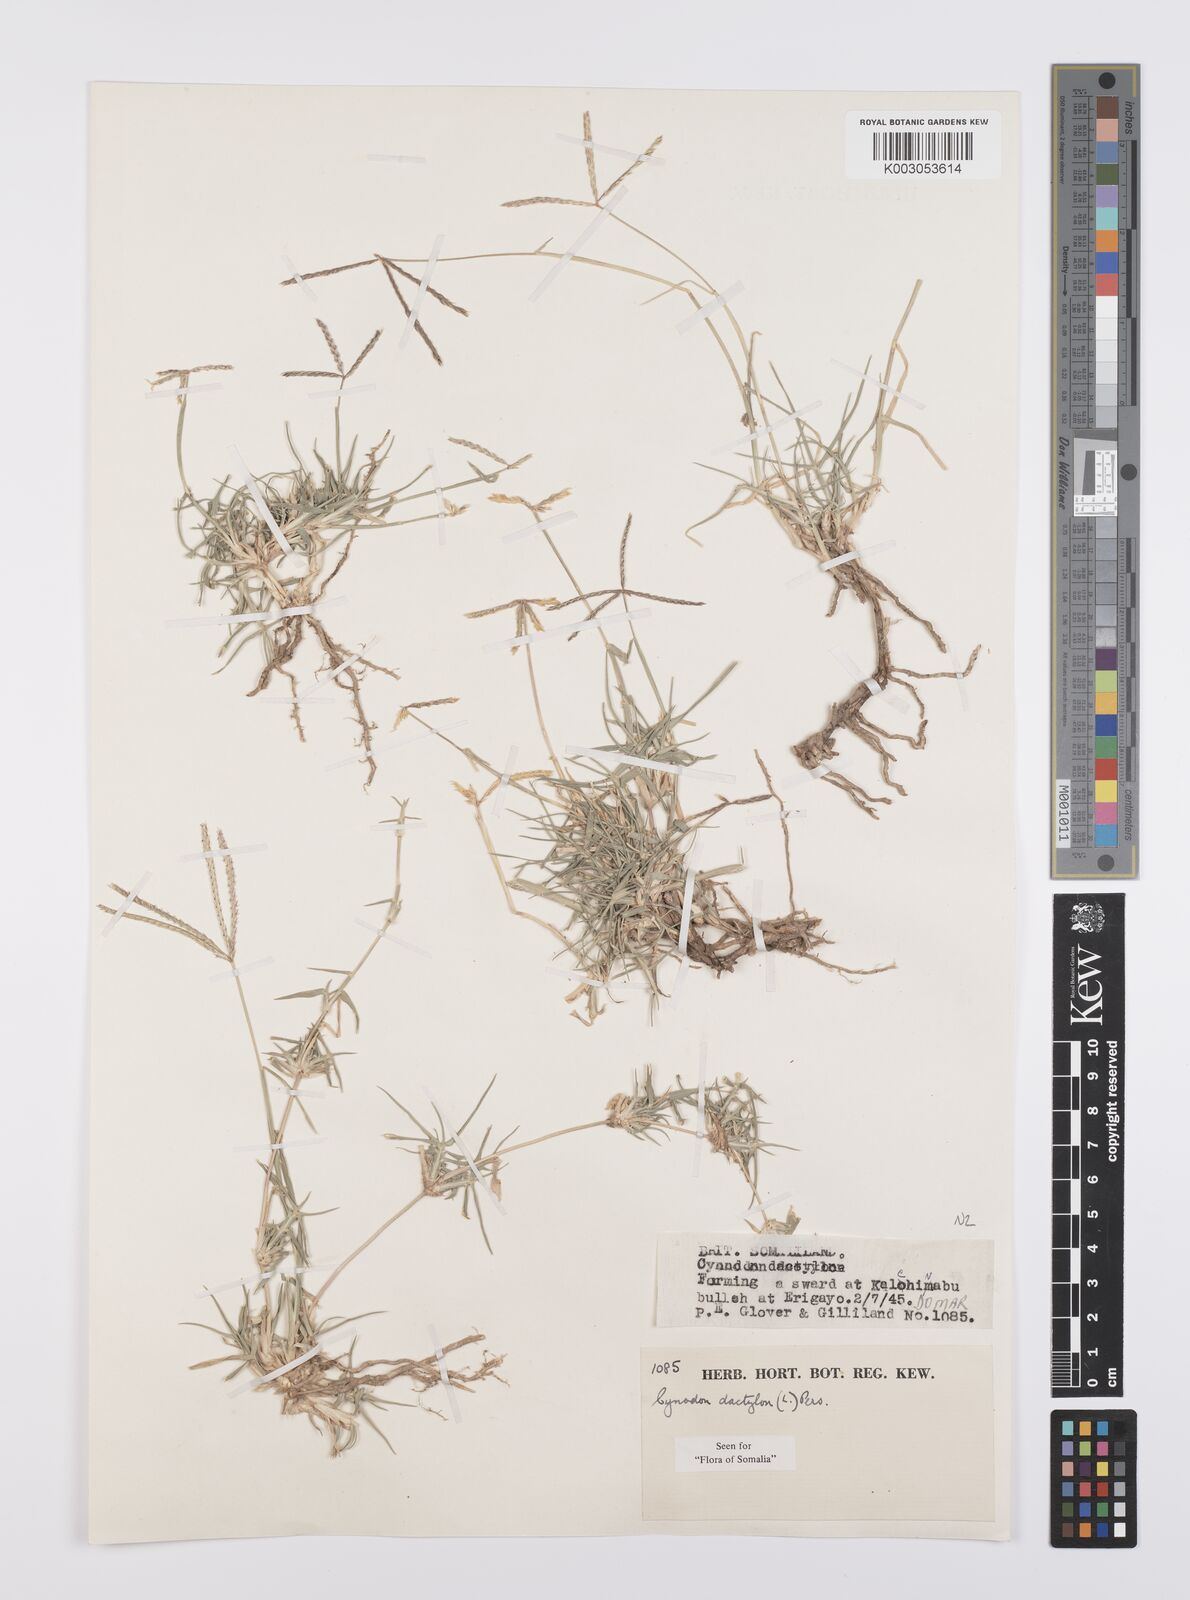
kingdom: Plantae
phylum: Tracheophyta
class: Liliopsida
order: Poales
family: Poaceae
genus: Cynodon
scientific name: Cynodon dactylon
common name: Bermuda grass
